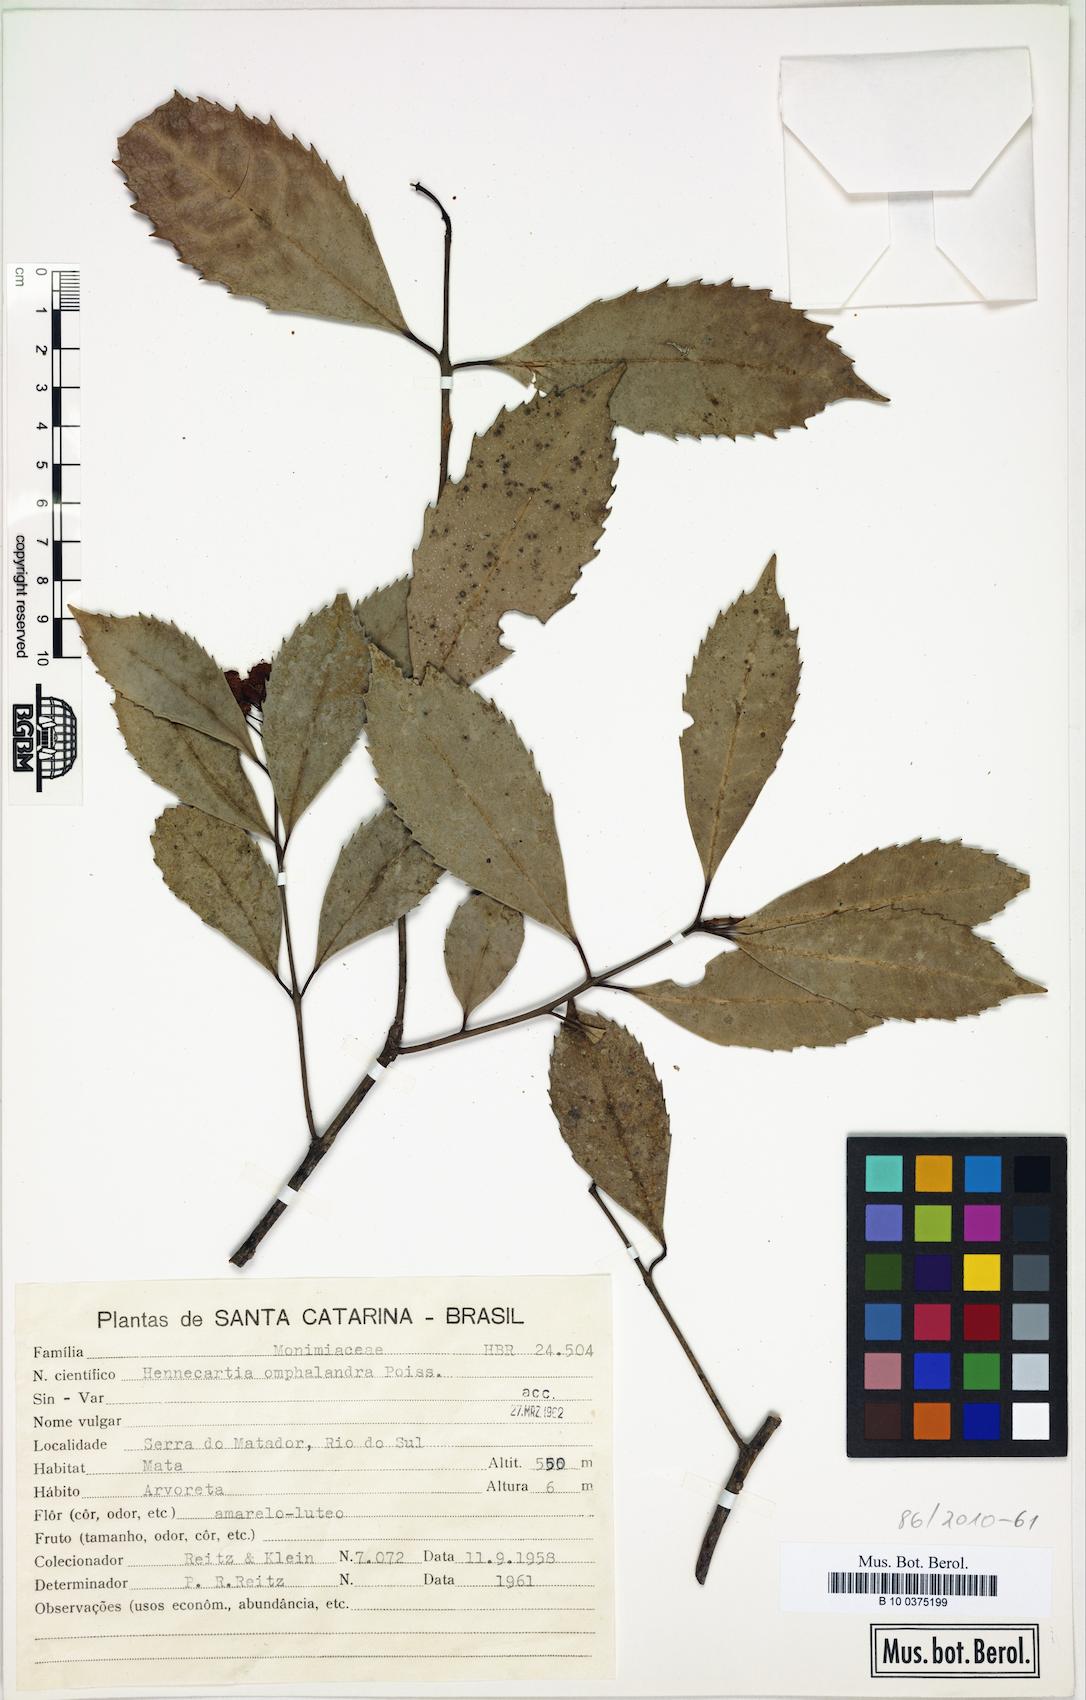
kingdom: Plantae
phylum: Tracheophyta
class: Magnoliopsida
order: Laurales
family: Monimiaceae
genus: Hennecartia
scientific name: Hennecartia omphalandra
